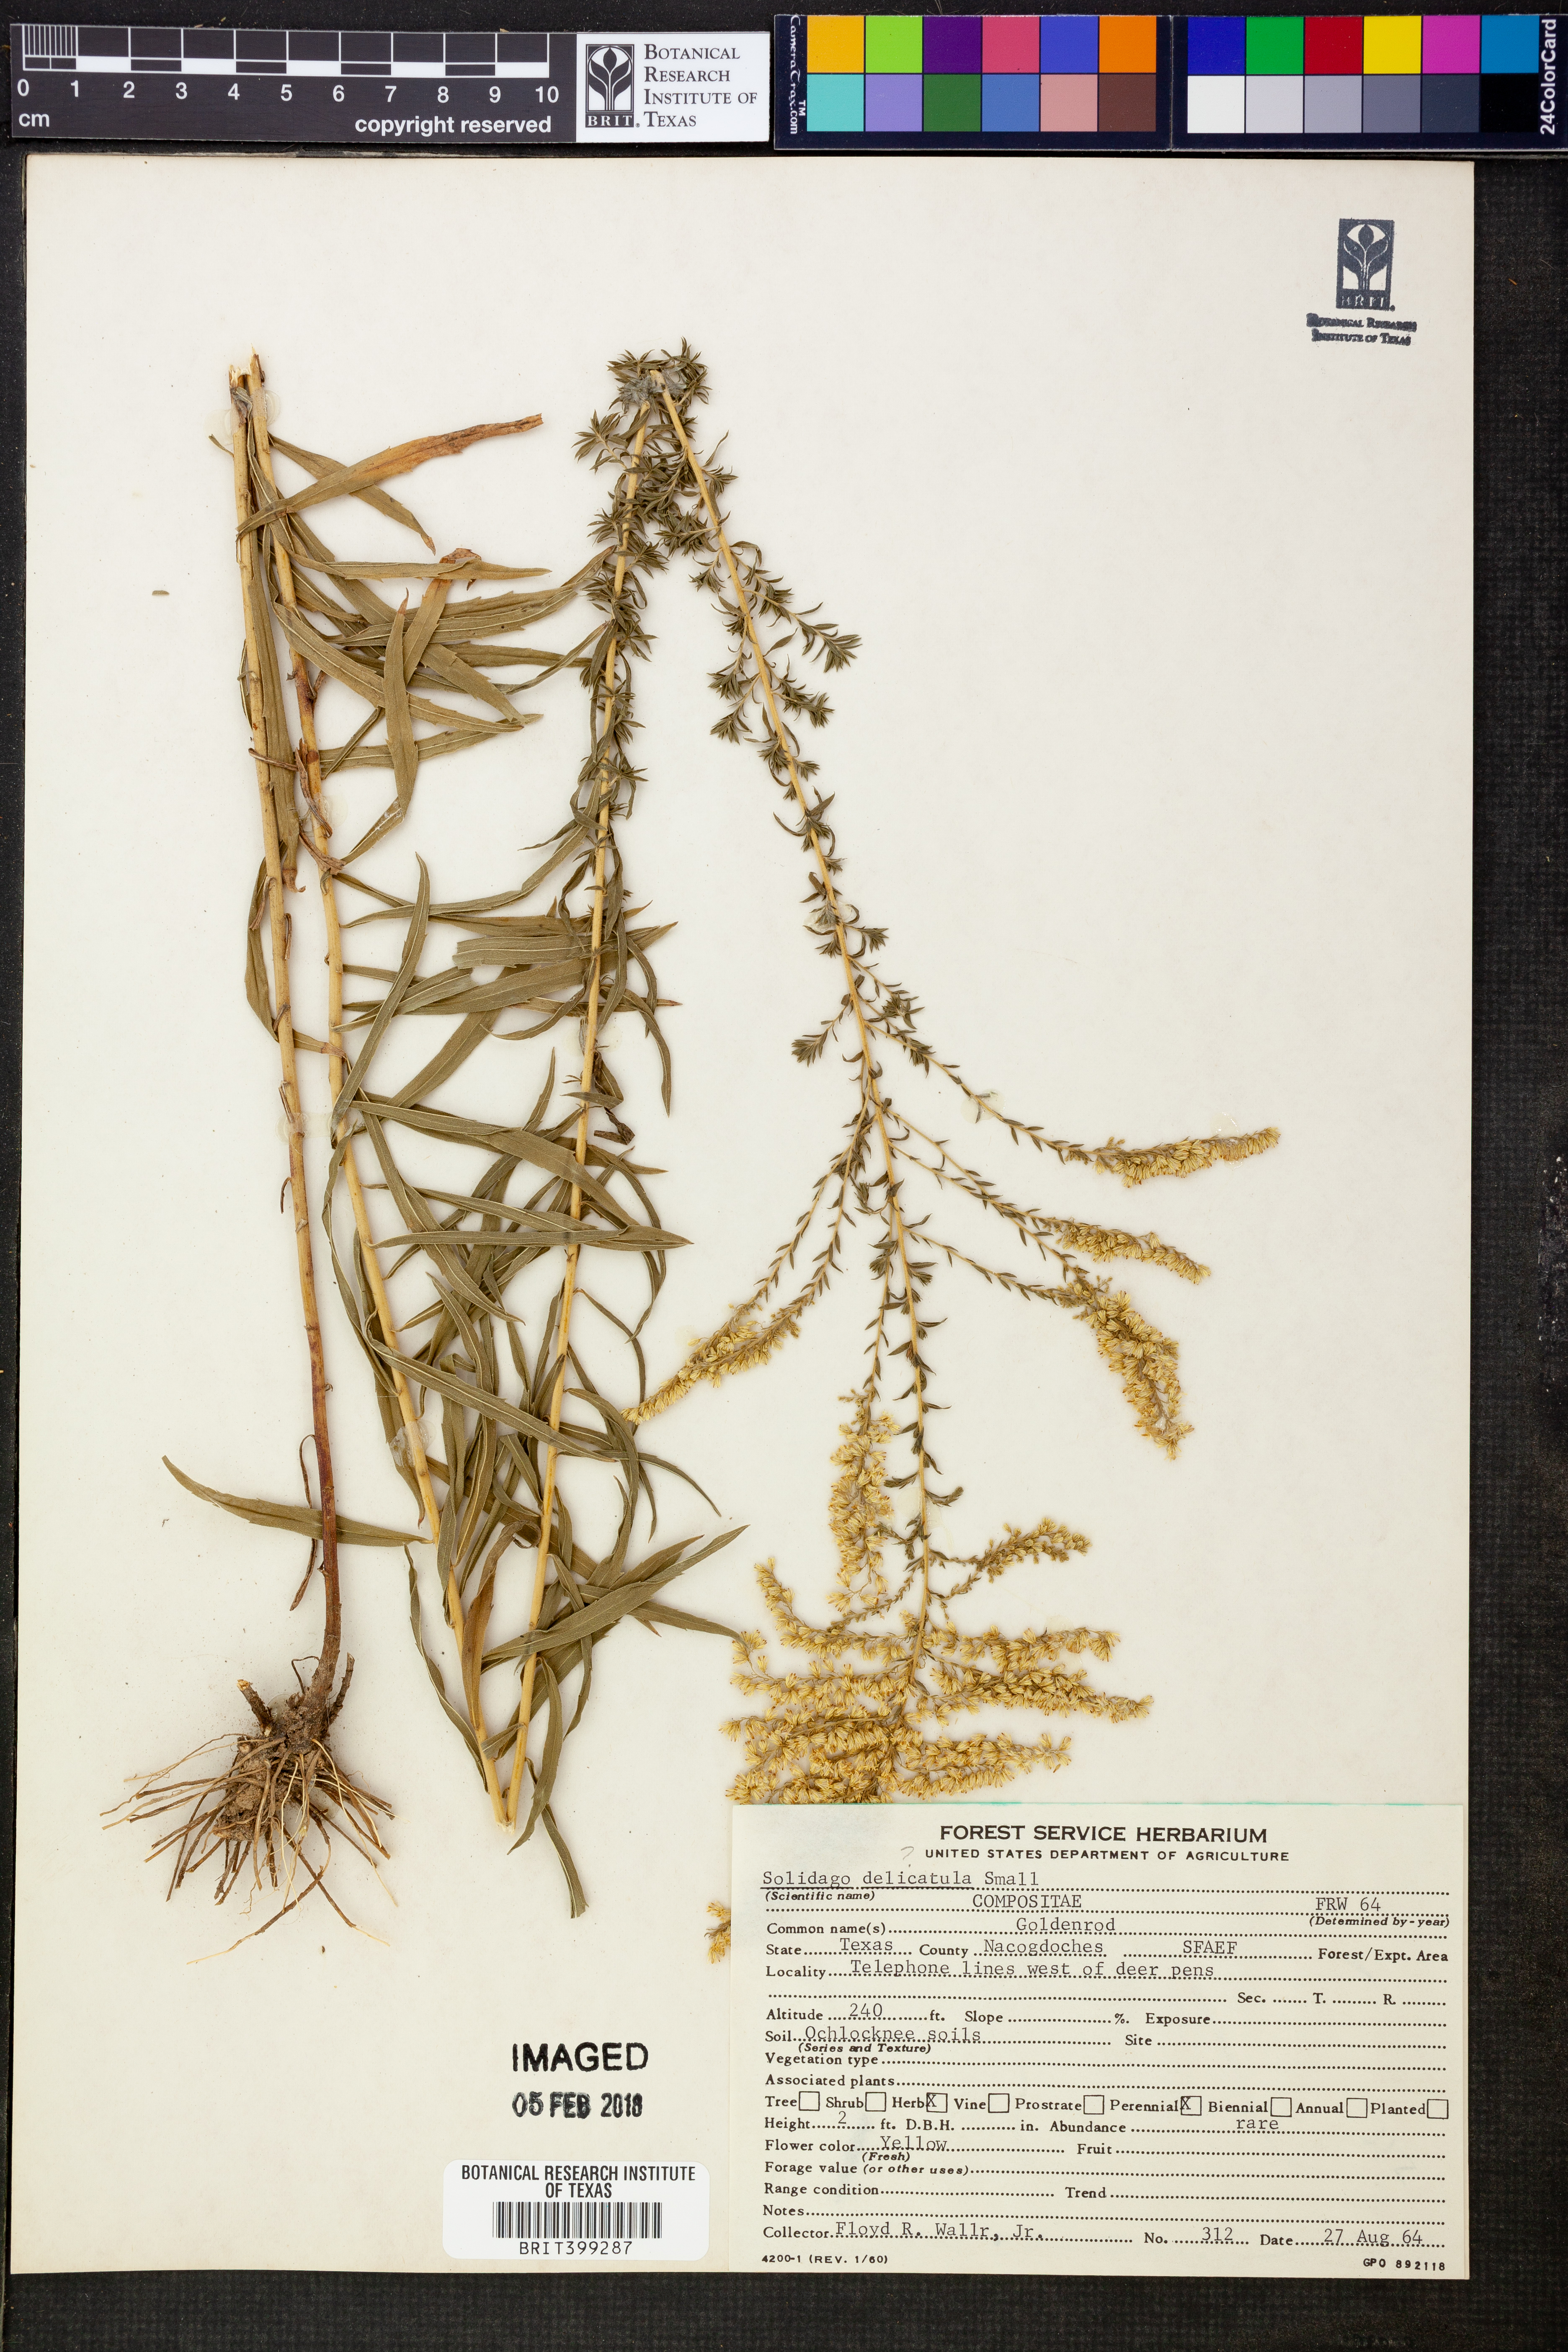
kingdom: Plantae
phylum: Tracheophyta
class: Magnoliopsida
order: Asterales
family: Asteraceae
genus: Solidago
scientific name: Solidago delicatula
